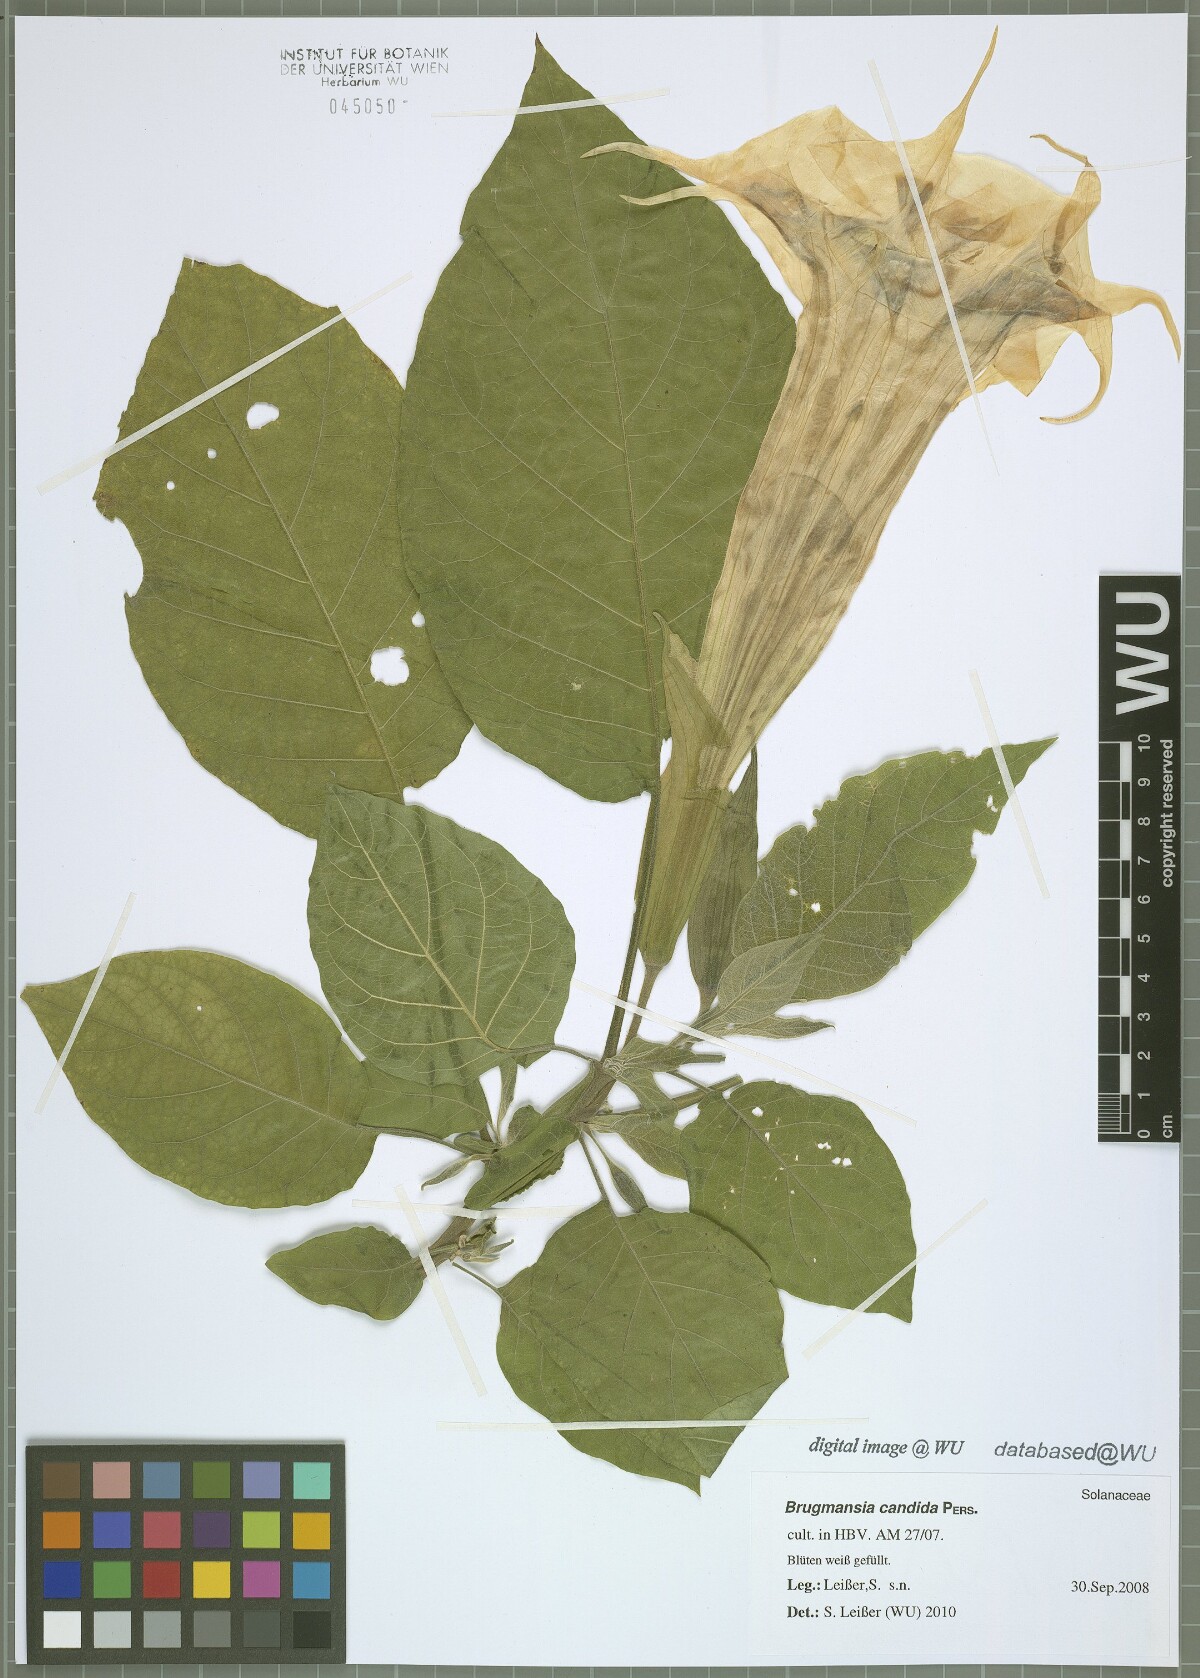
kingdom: Plantae
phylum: Tracheophyta
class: Magnoliopsida
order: Solanales
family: Solanaceae
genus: Brugmansia
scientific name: Brugmansia candida
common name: Angel's-trumpet
